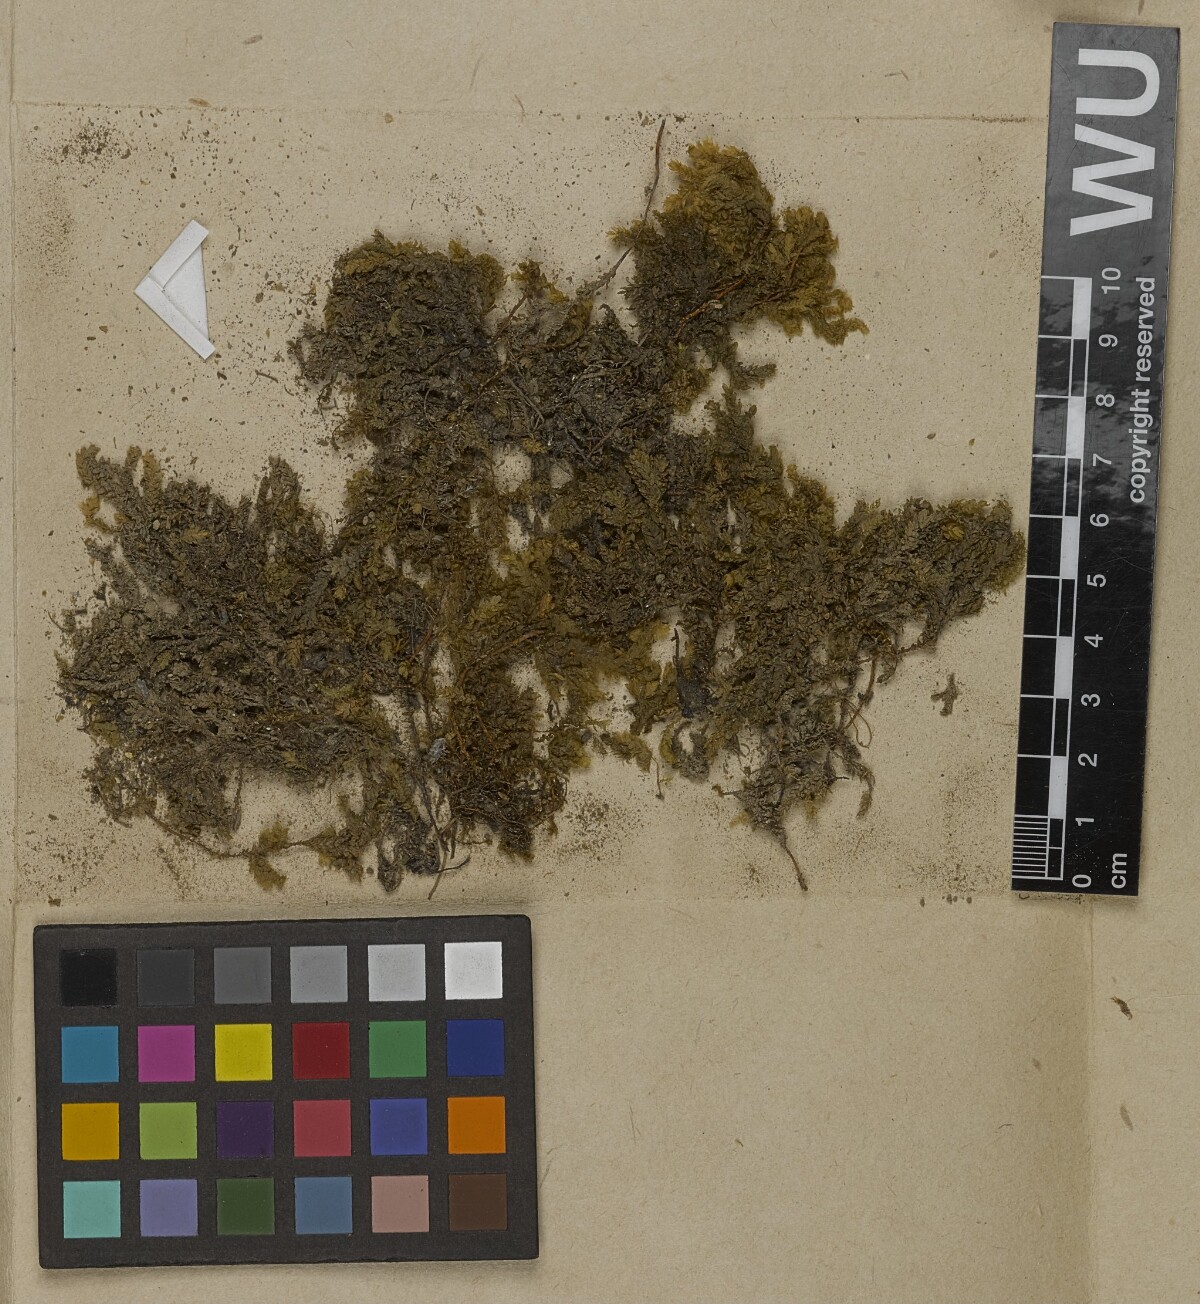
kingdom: Plantae
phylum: Bryophyta
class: Bryopsida
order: Hypnales
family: Neckeraceae
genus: Thamnobryum
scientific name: Thamnobryum neckeroides
